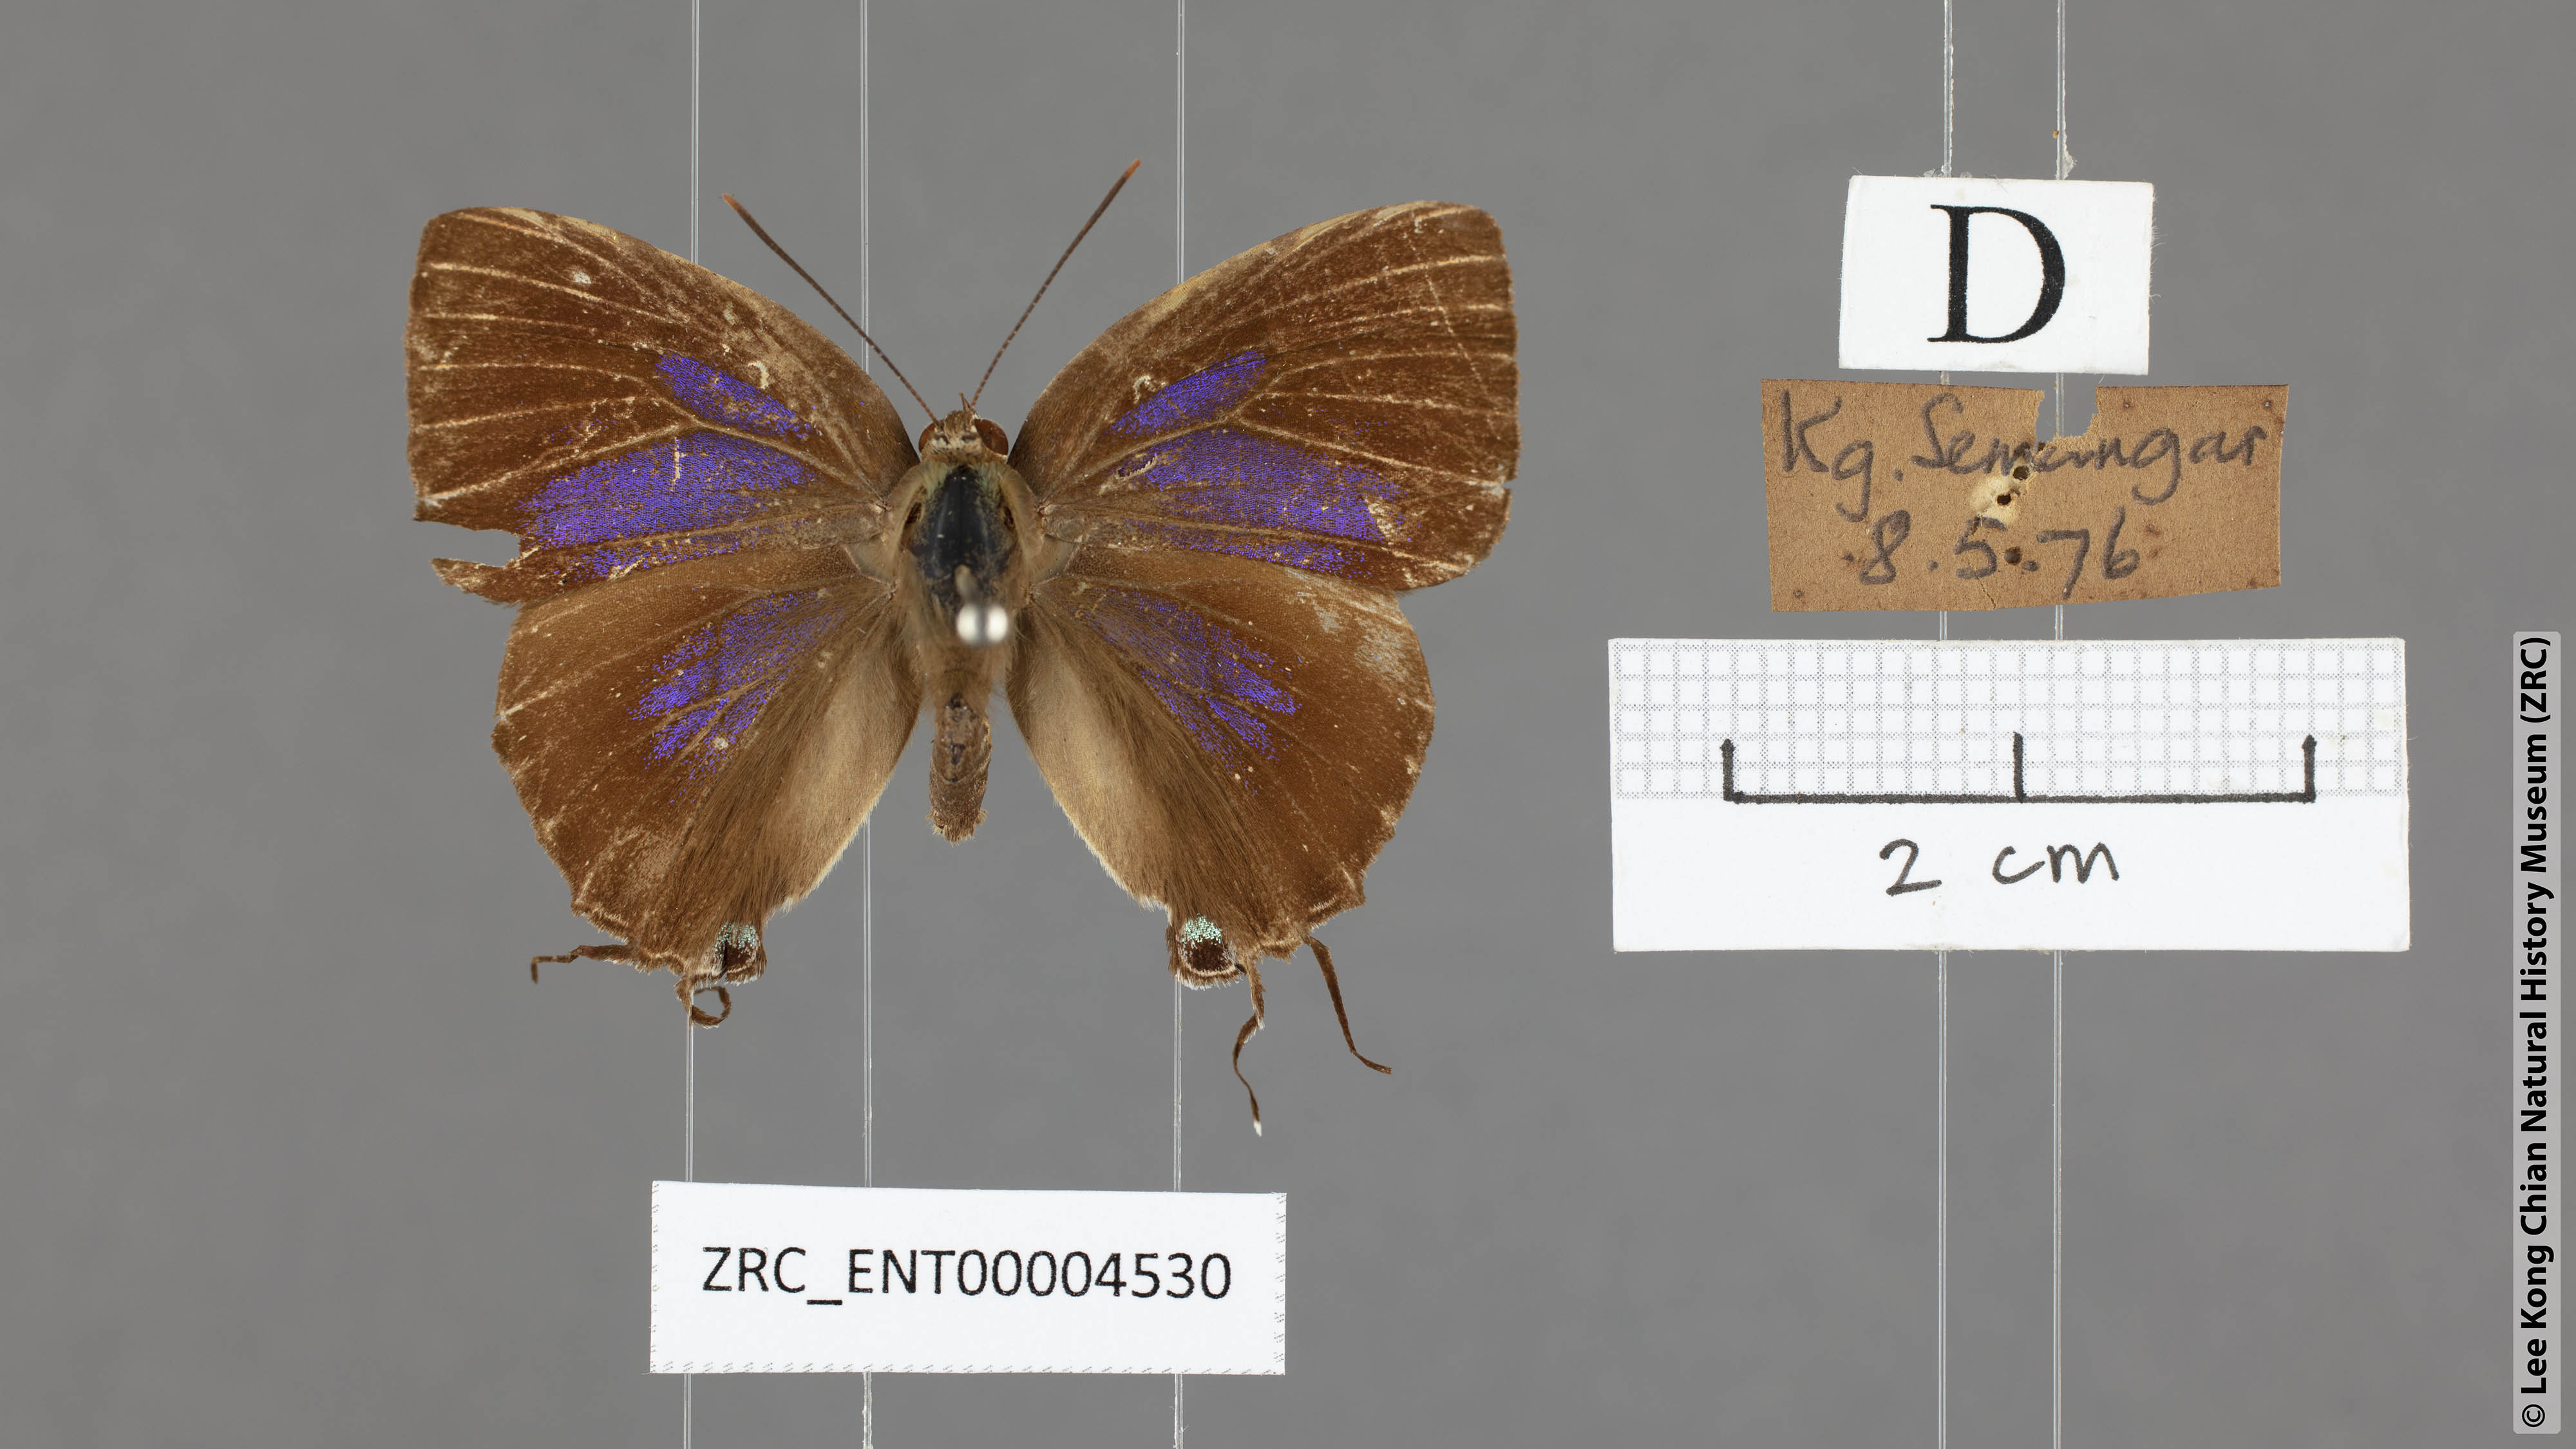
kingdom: Animalia
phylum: Arthropoda
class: Insecta
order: Lepidoptera
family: Lycaenidae
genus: Remelana
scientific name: Remelana jangala
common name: Chocolate royal
